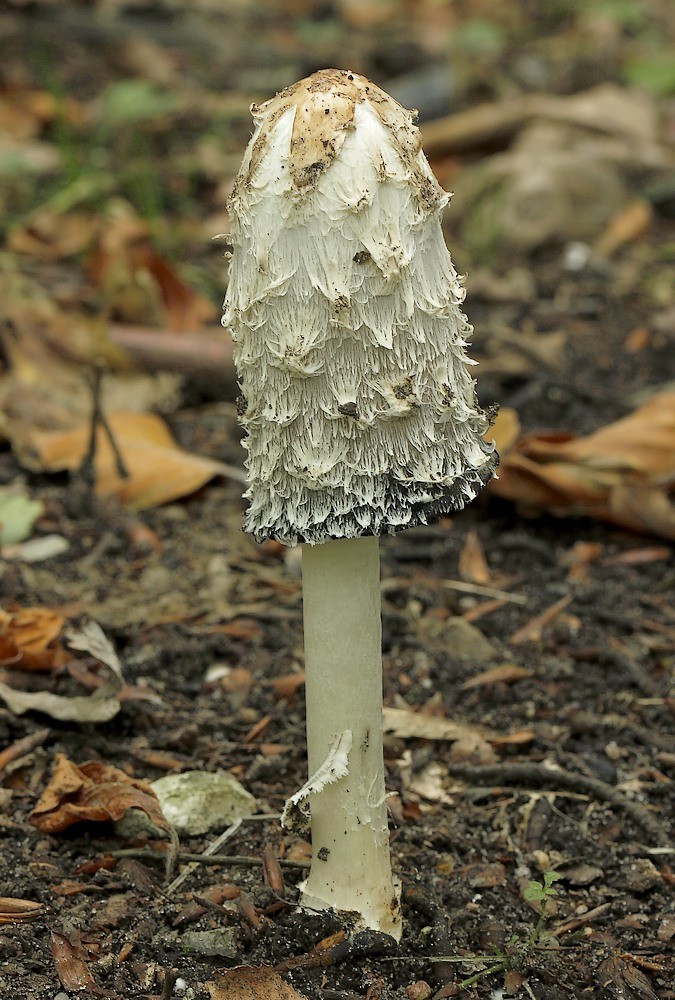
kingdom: Fungi
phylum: Basidiomycota
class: Agaricomycetes
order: Agaricales
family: Agaricaceae
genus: Coprinus
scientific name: Coprinus comatus
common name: stor parykhat
